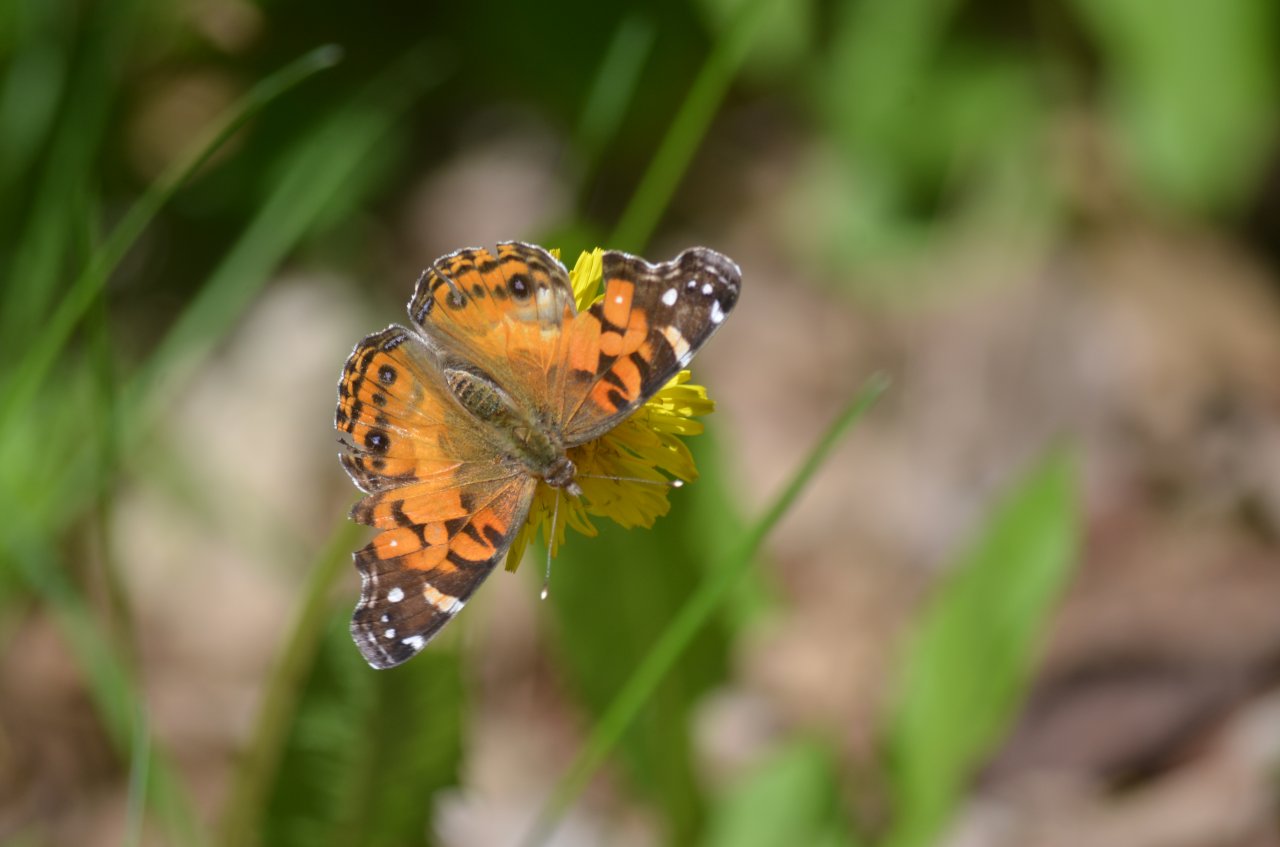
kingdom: Animalia
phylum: Arthropoda
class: Insecta
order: Lepidoptera
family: Nymphalidae
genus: Vanessa
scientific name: Vanessa virginiensis
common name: American Lady
